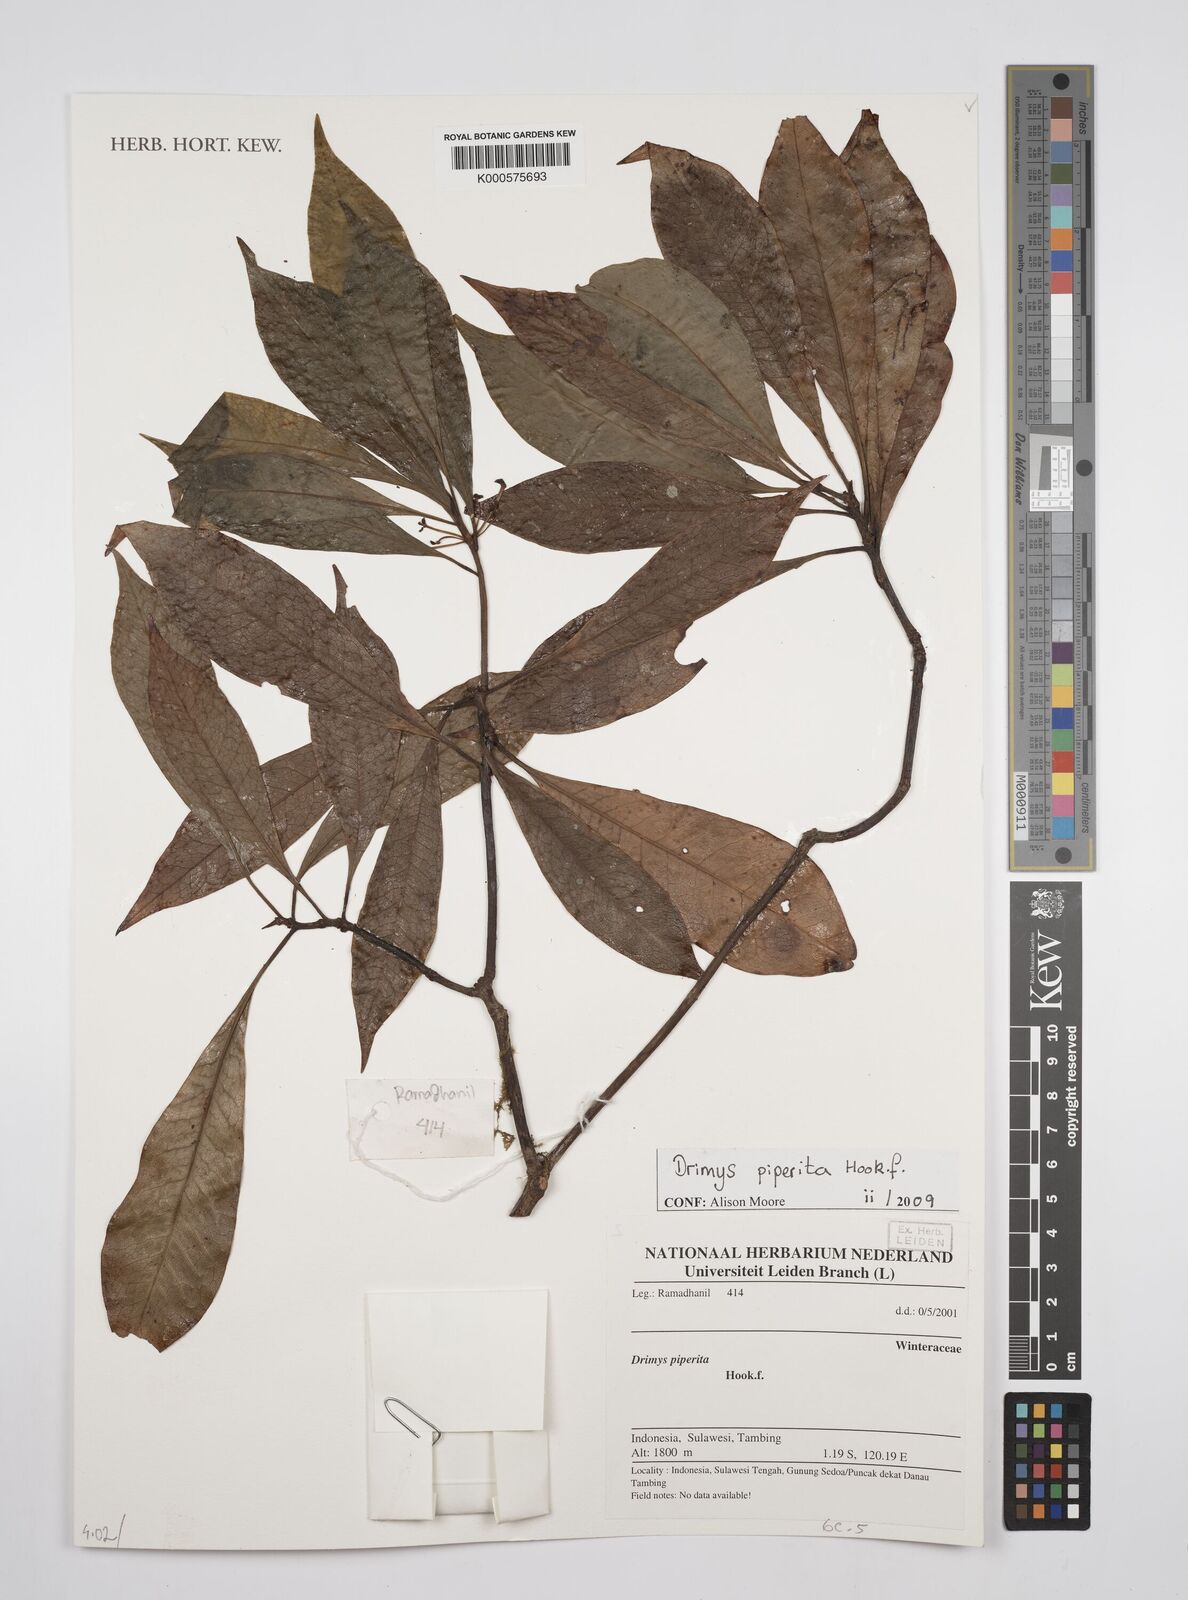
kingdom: Plantae
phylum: Tracheophyta
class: Magnoliopsida
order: Canellales
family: Winteraceae
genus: Drimys
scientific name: Drimys piperita
